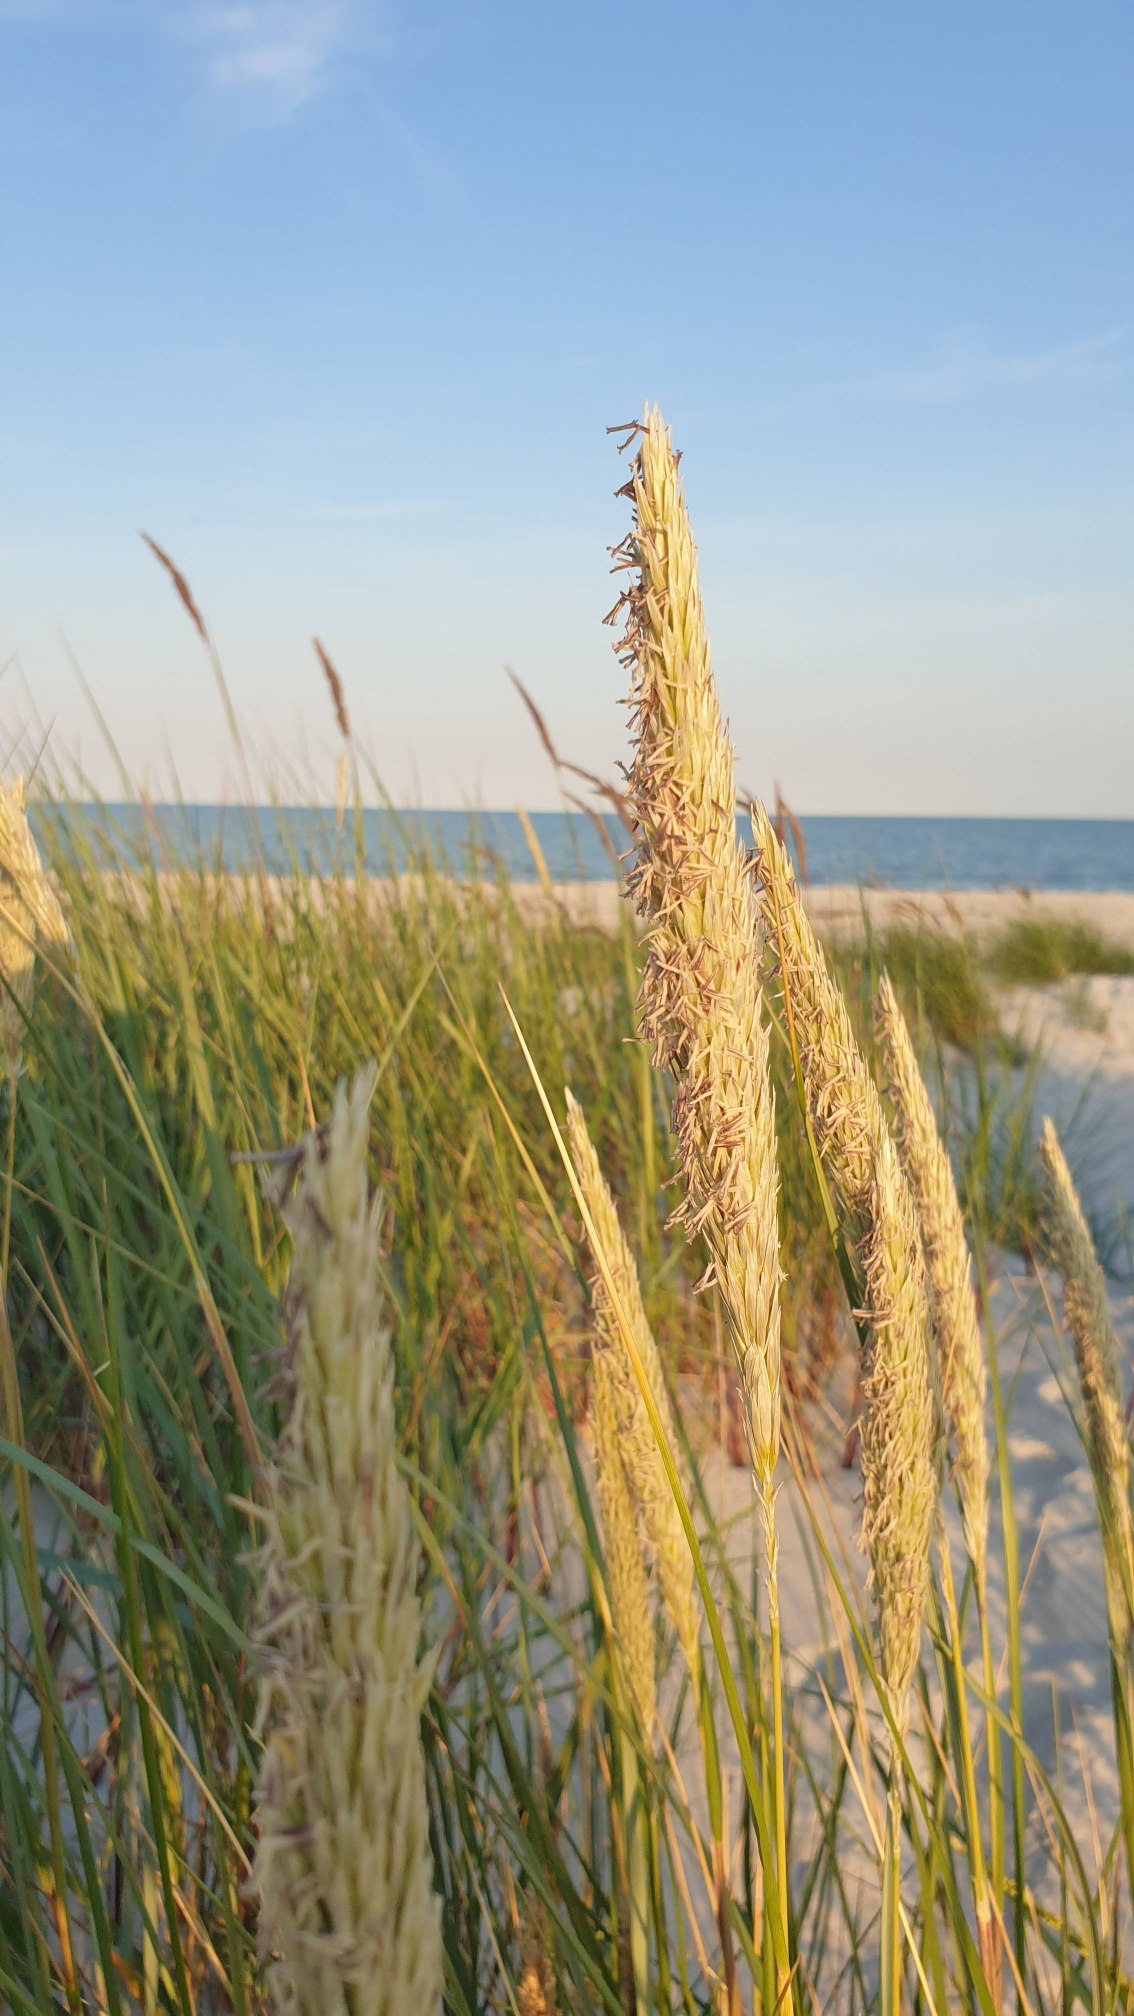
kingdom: Plantae
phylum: Tracheophyta
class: Liliopsida
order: Poales
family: Poaceae
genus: Calamagrostis
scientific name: Calamagrostis arenaria
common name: Sand-hjælme
